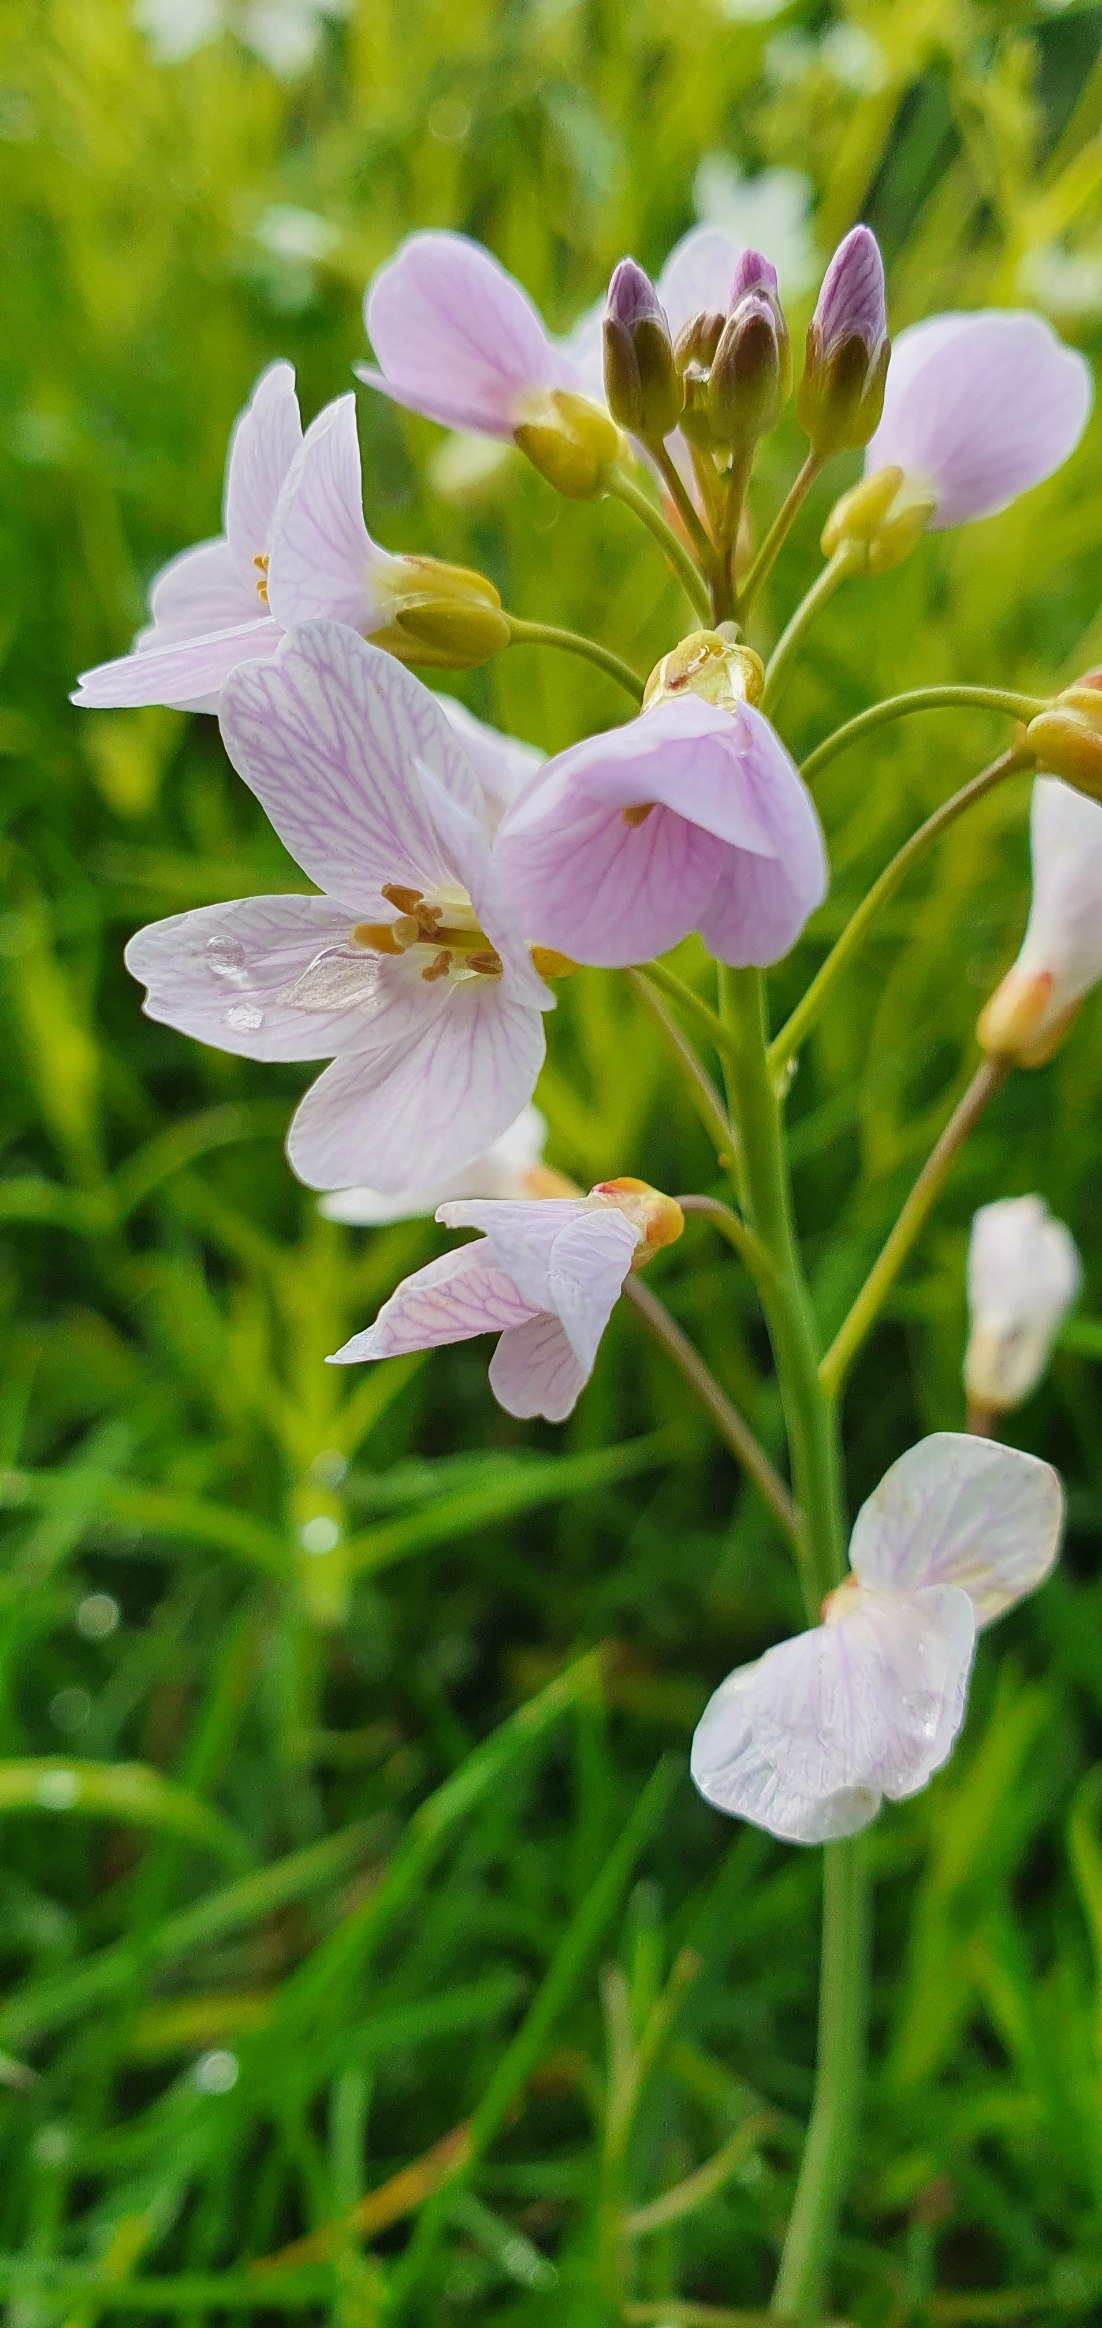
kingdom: Plantae
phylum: Tracheophyta
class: Magnoliopsida
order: Brassicales
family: Brassicaceae
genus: Cardamine
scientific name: Cardamine pratensis
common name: Engkarse
